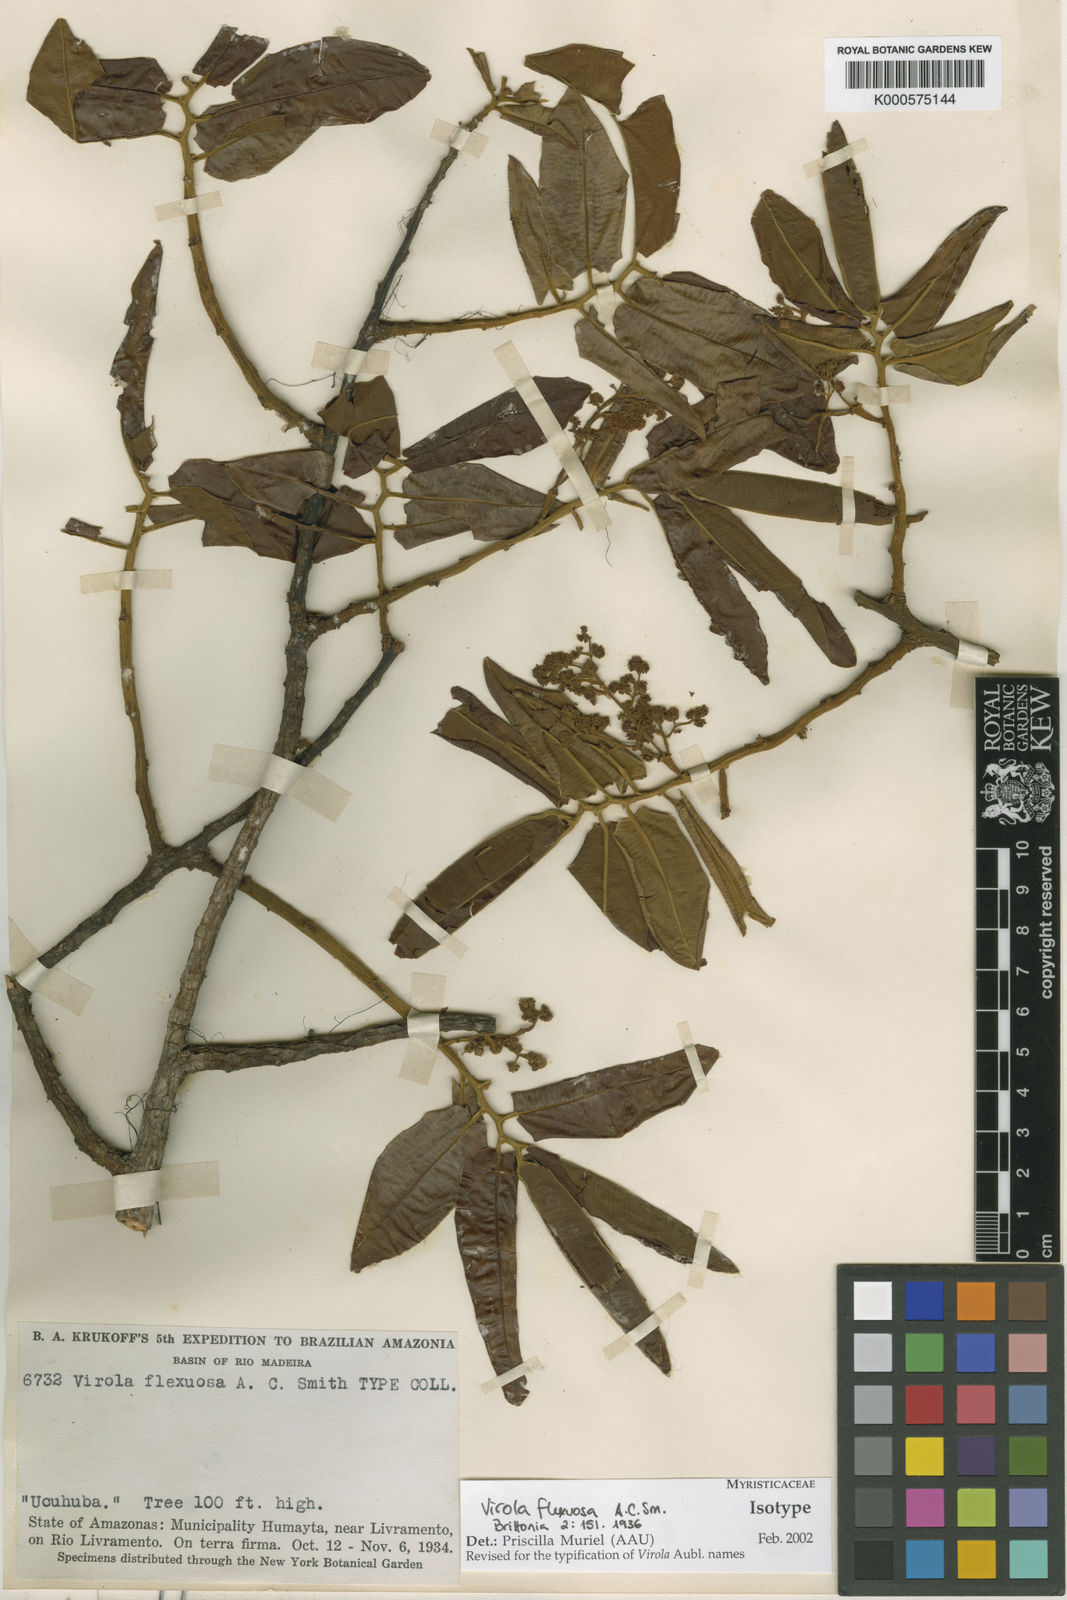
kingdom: Plantae
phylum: Tracheophyta
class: Magnoliopsida
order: Magnoliales
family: Myristicaceae
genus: Virola
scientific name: Virola flexuosa
